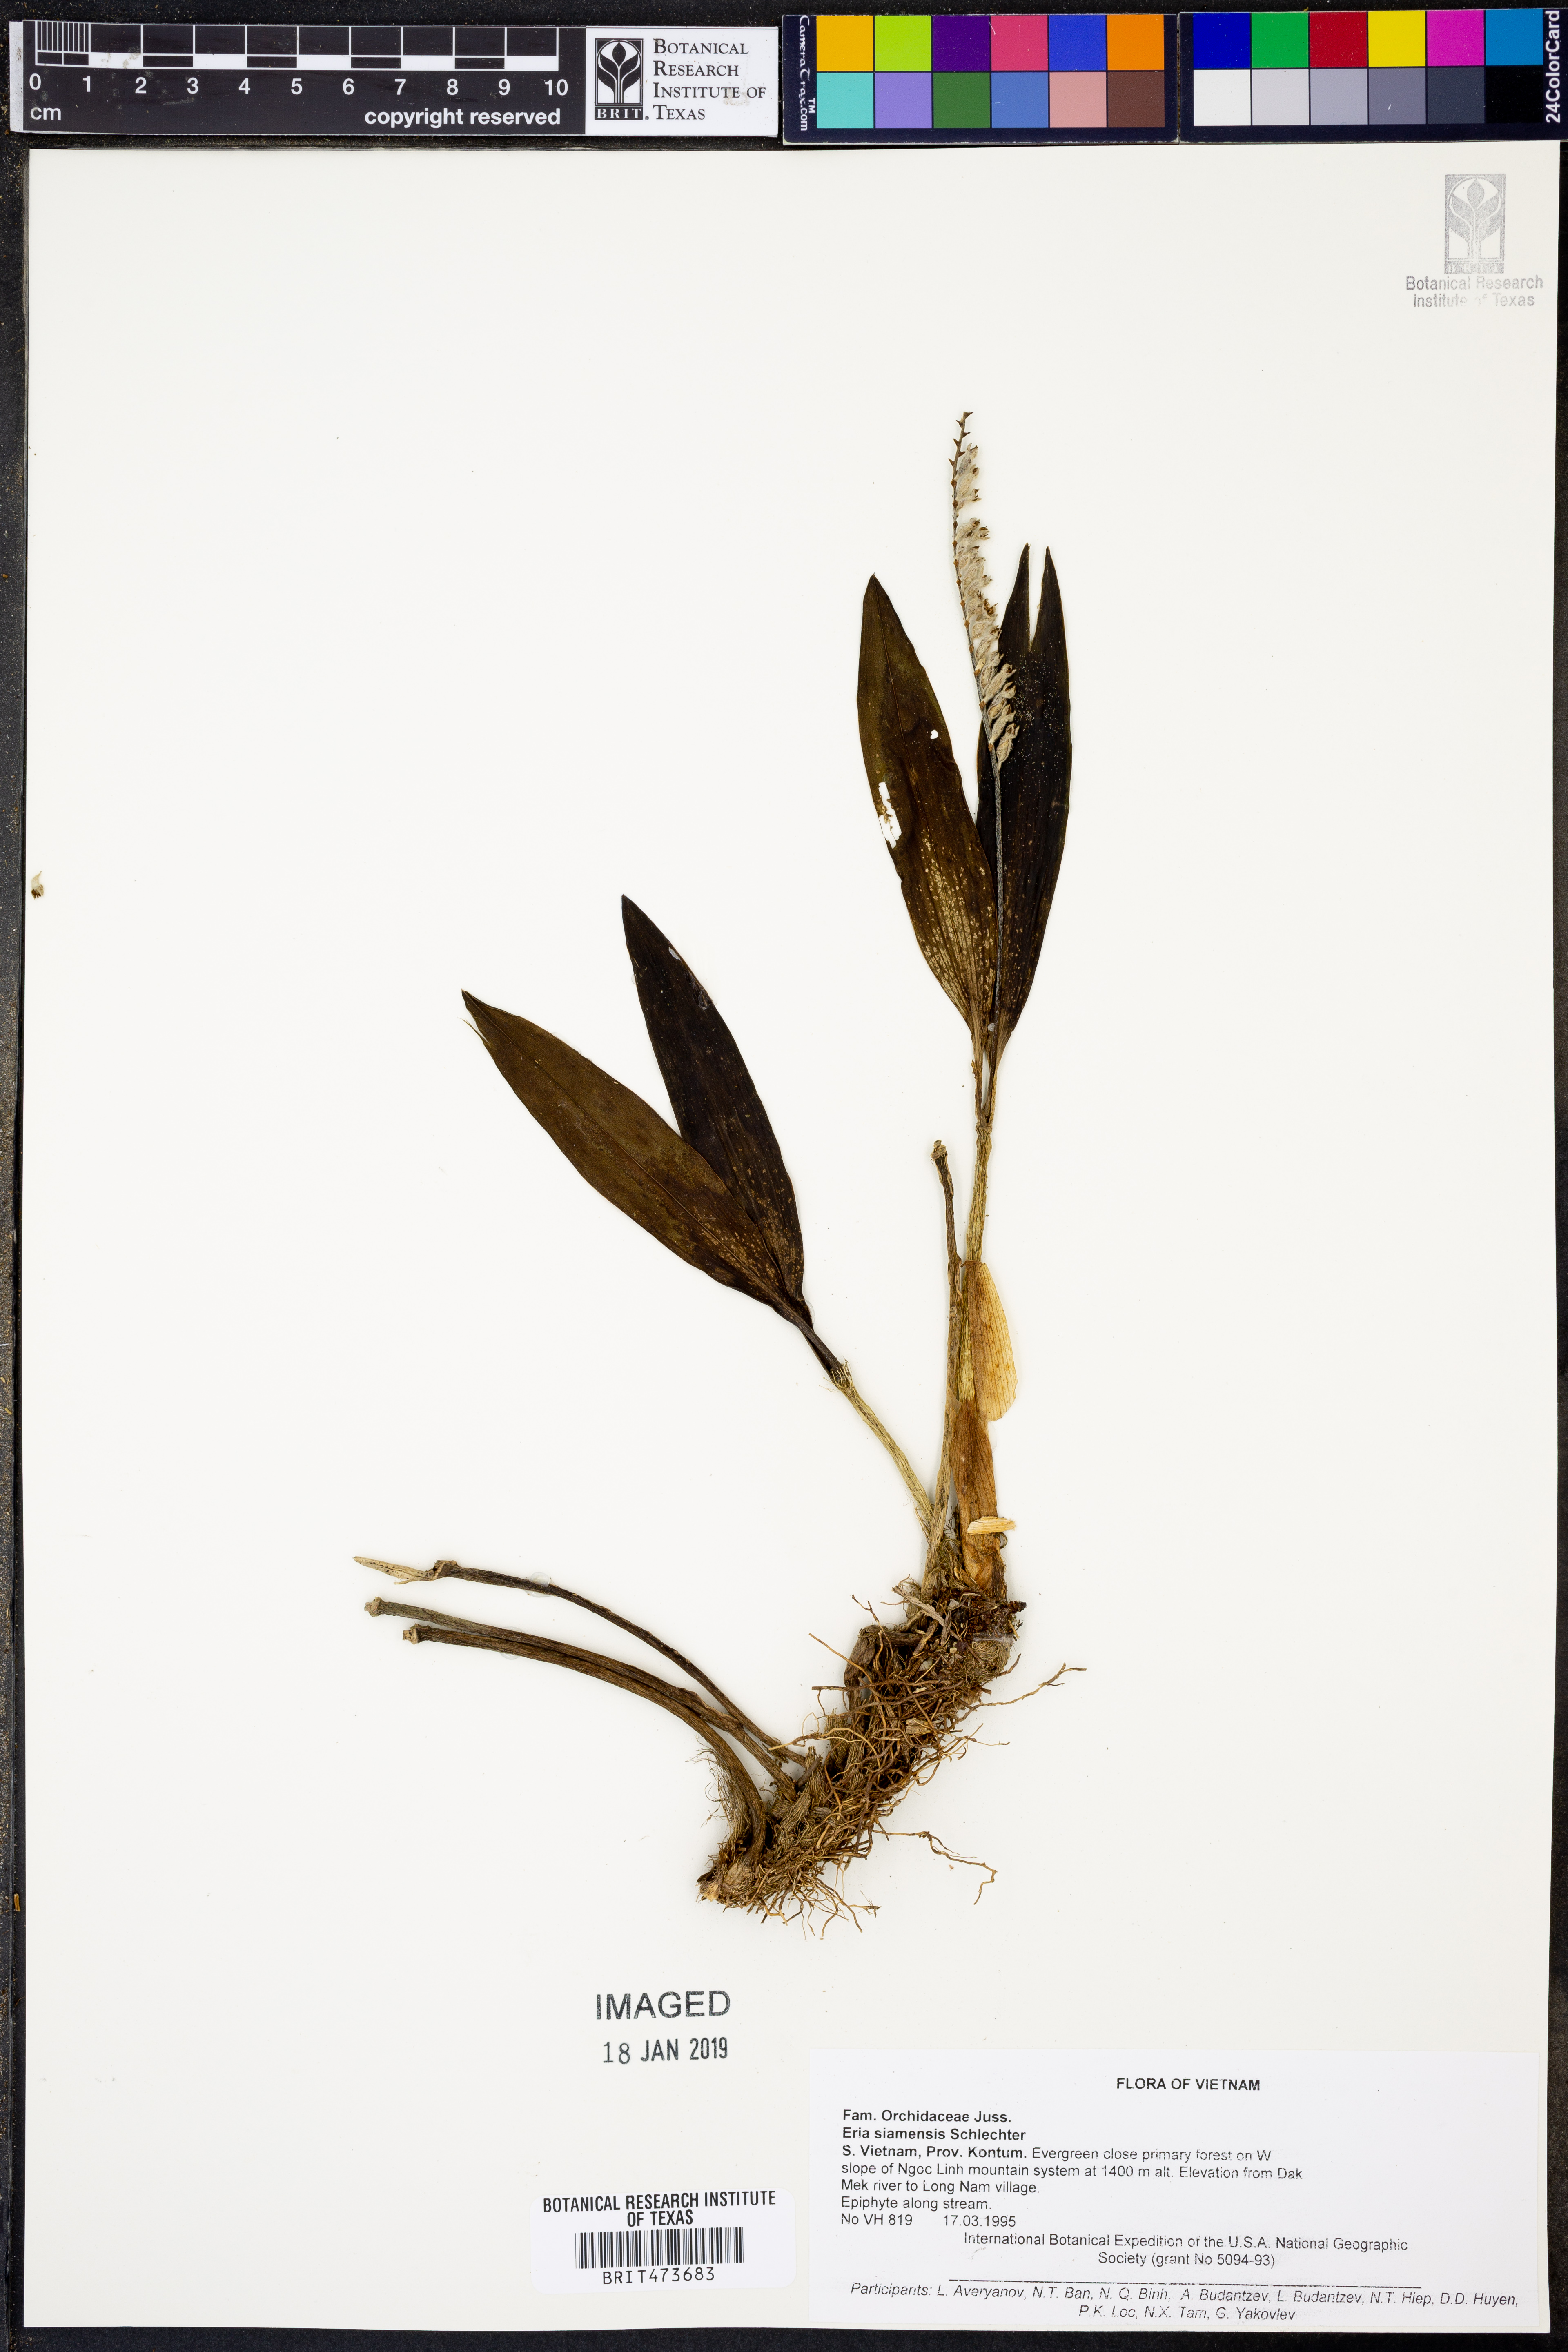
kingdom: Plantae
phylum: Tracheophyta
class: Liliopsida
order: Asparagales
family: Orchidaceae
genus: Cryptochilus
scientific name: Cryptochilus siamensis
